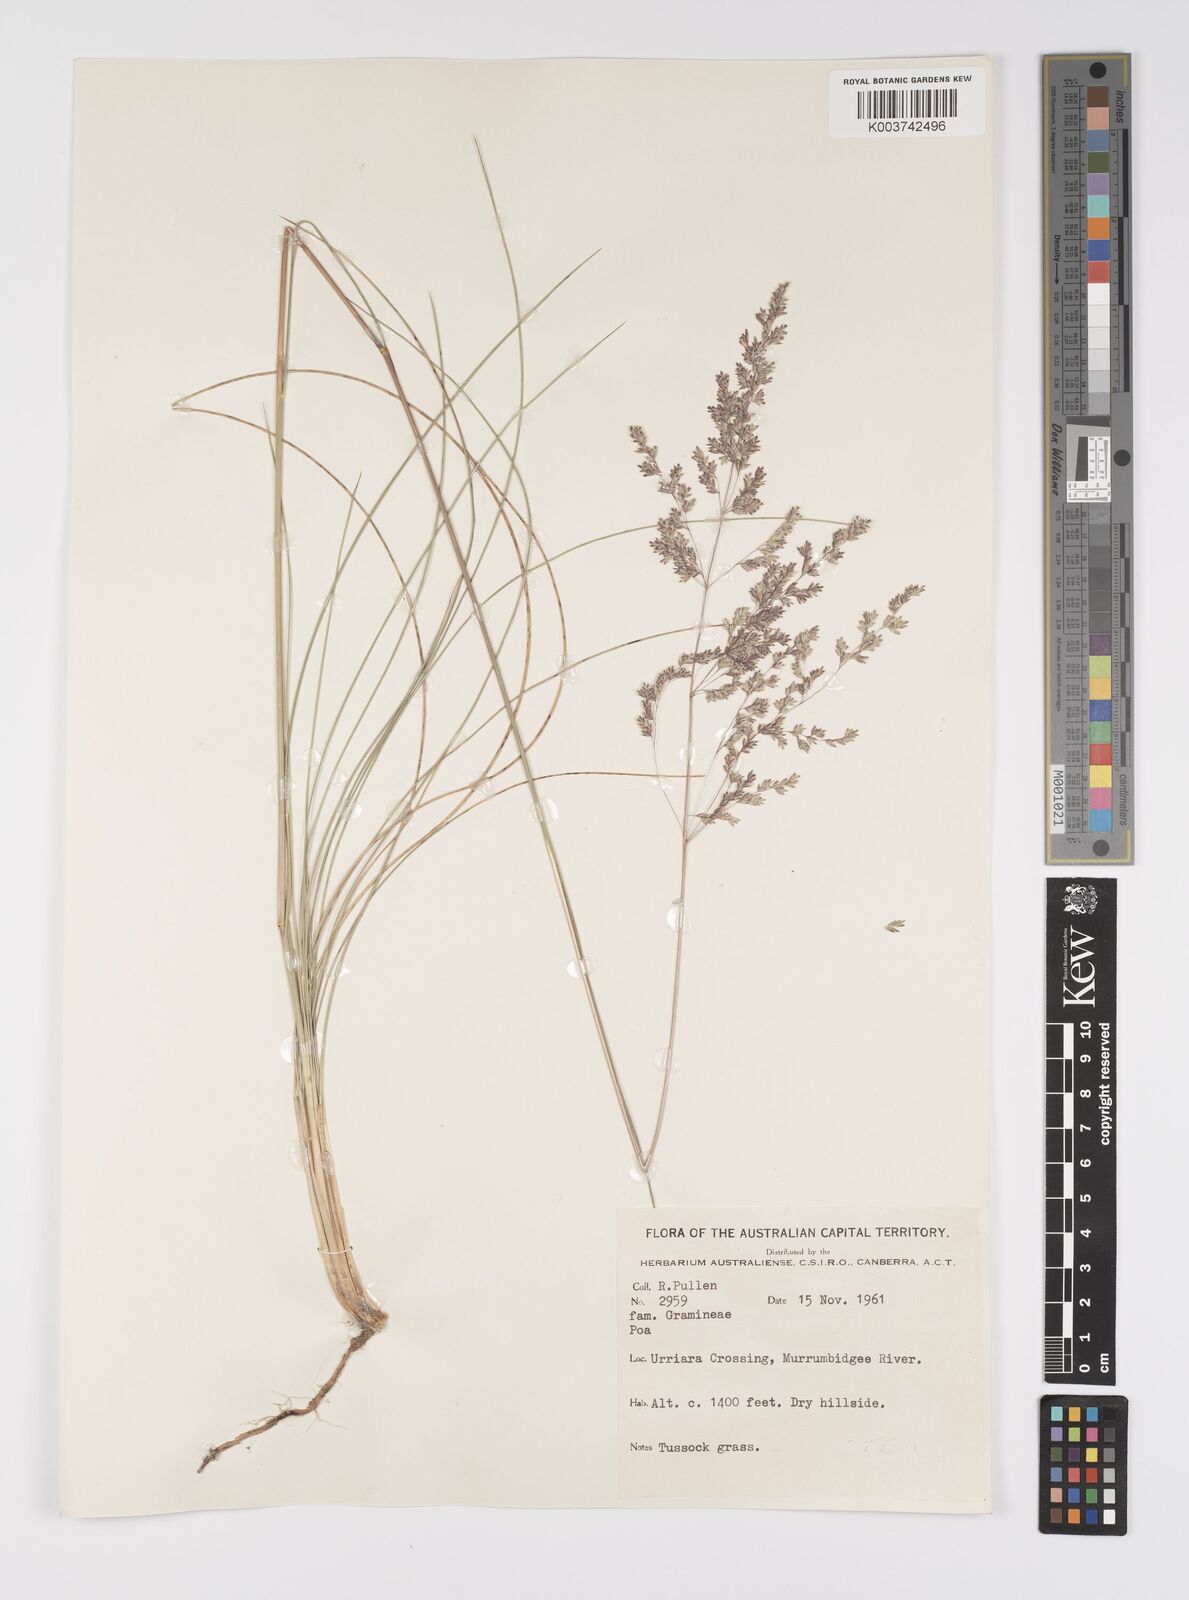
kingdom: Plantae
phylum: Tracheophyta
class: Liliopsida
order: Poales
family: Poaceae
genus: Poa
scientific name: Poa
